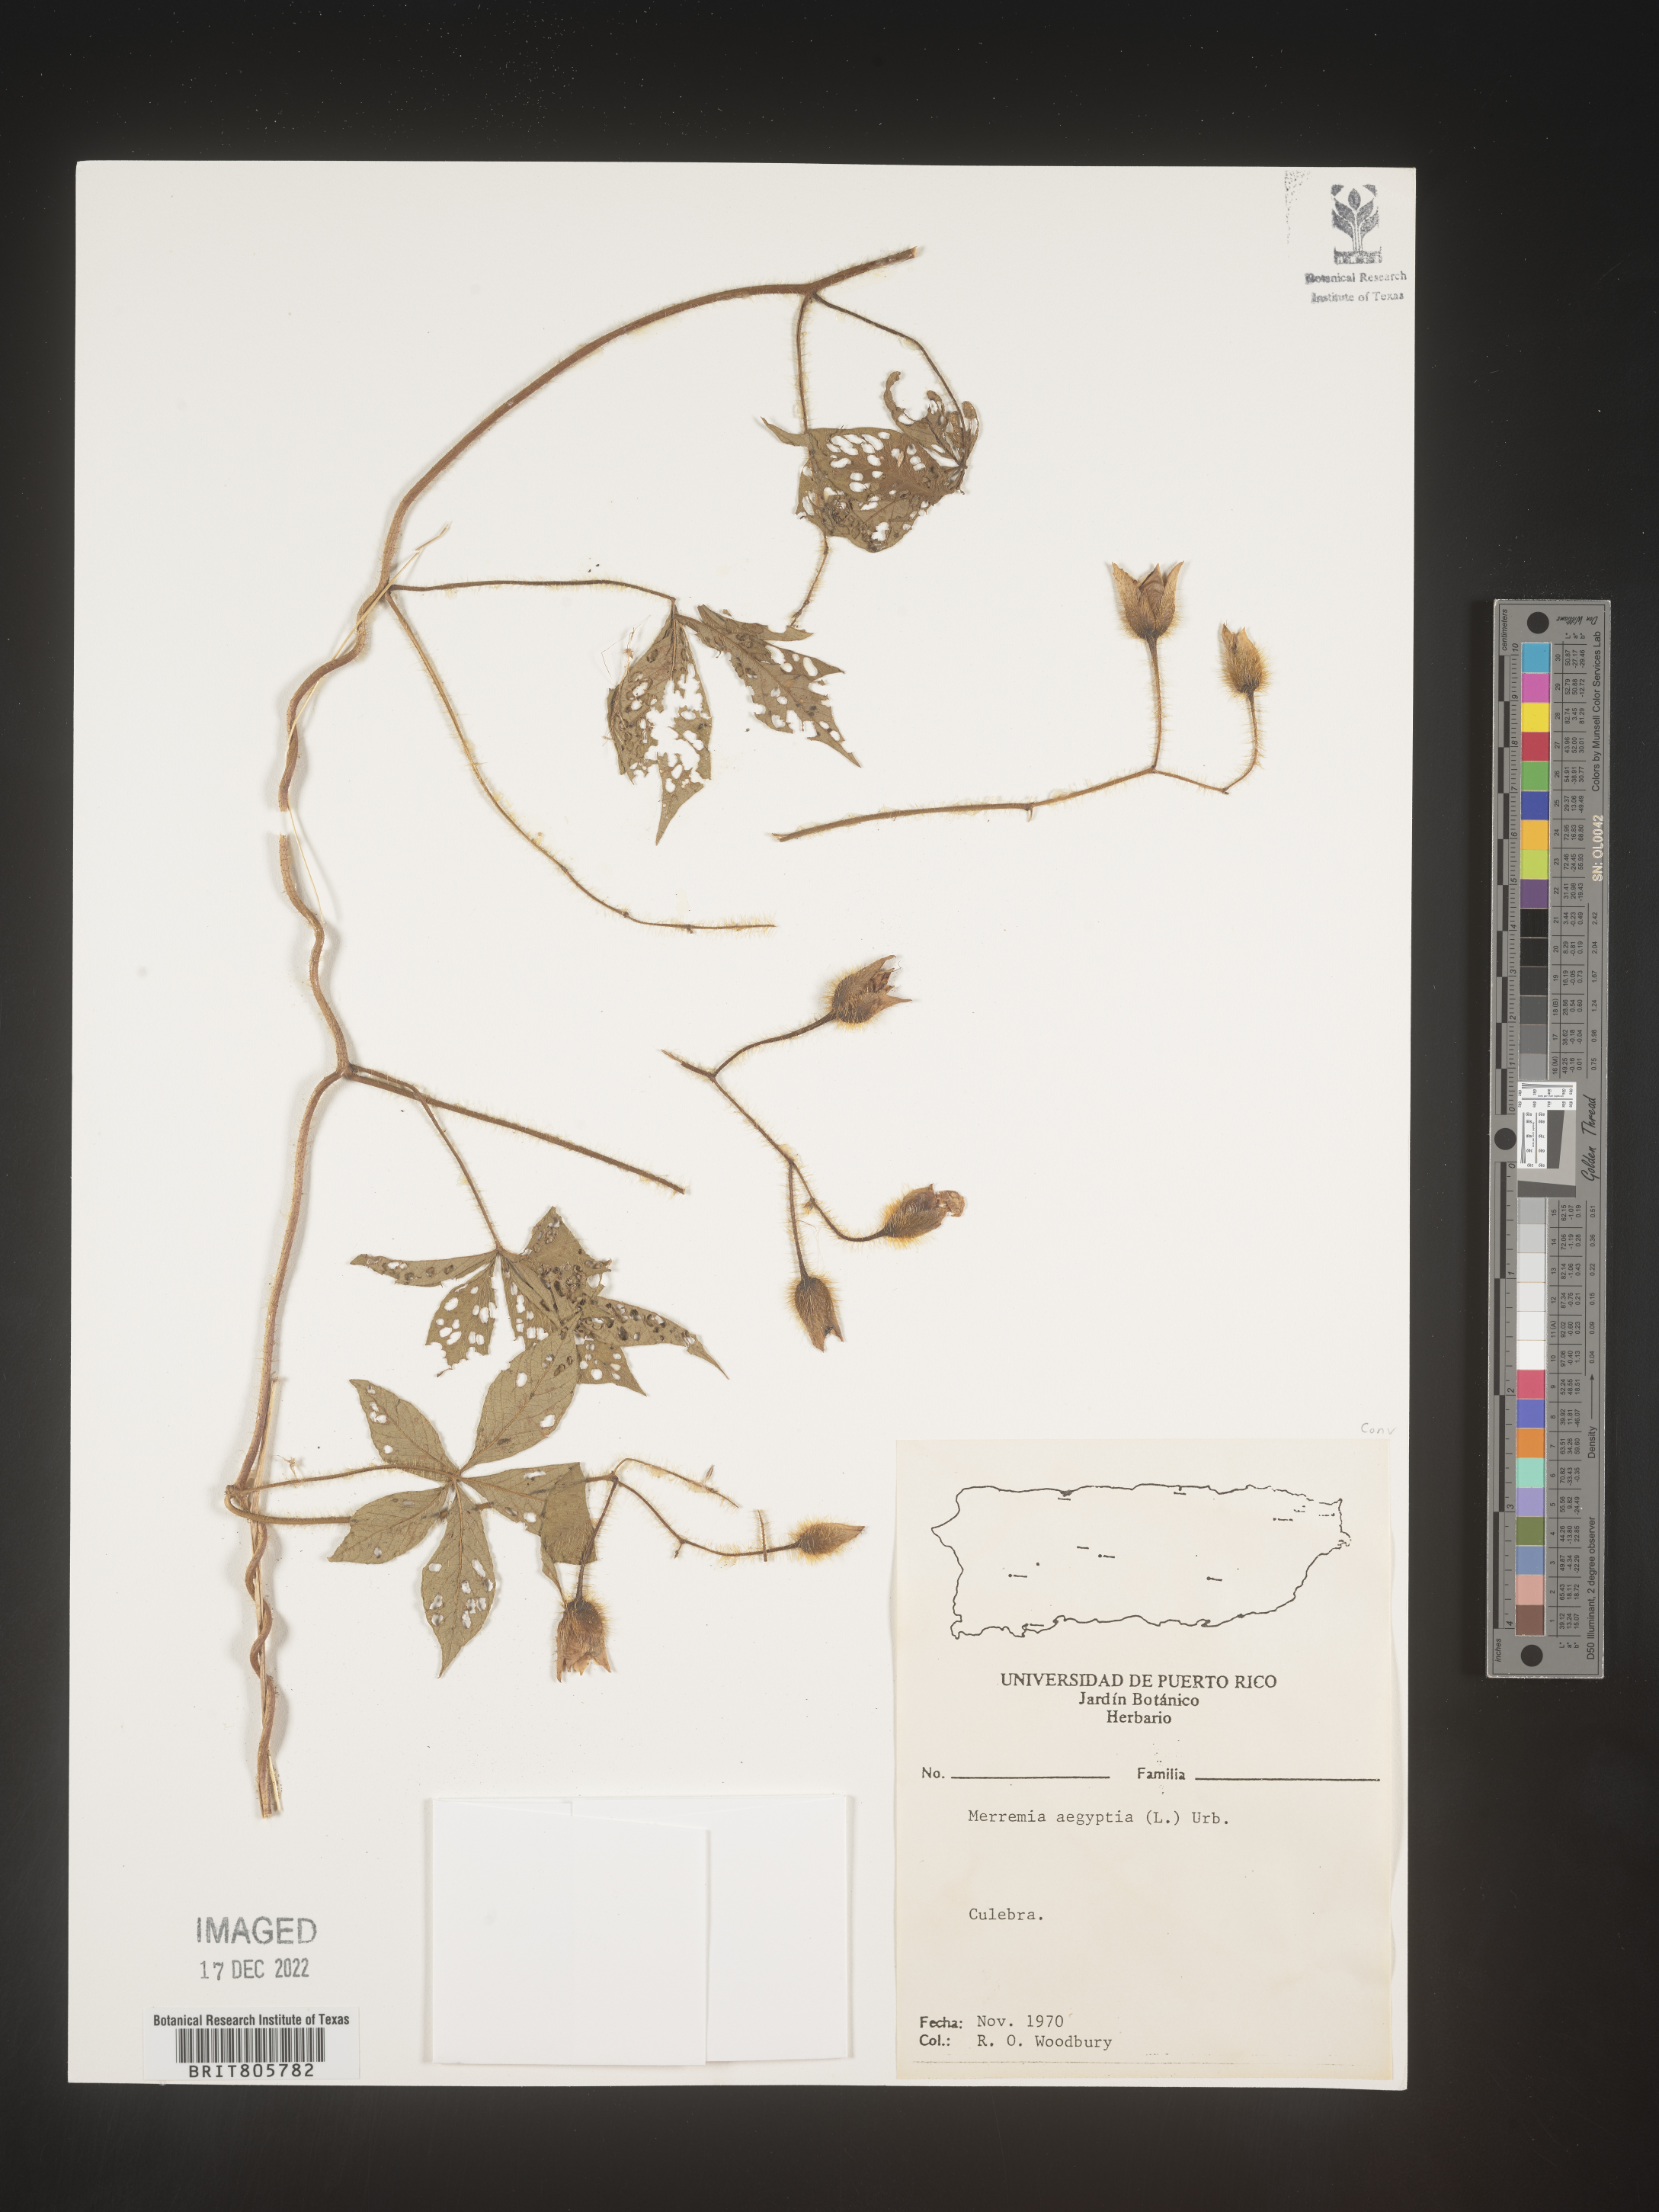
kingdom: Plantae
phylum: Tracheophyta
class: Magnoliopsida
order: Solanales
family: Convolvulaceae
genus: Merremia
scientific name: Merremia
